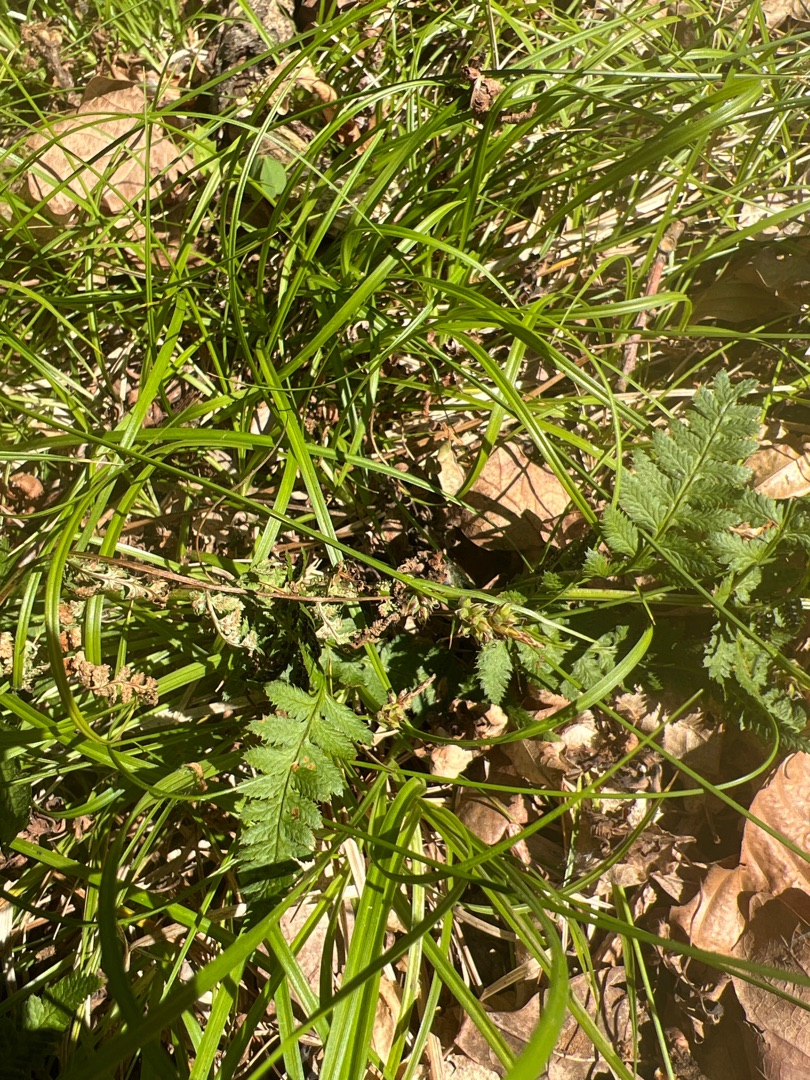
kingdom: Plantae
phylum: Tracheophyta
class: Liliopsida
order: Poales
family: Cyperaceae
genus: Carex
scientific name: Carex pilulifera
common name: Pille-star
